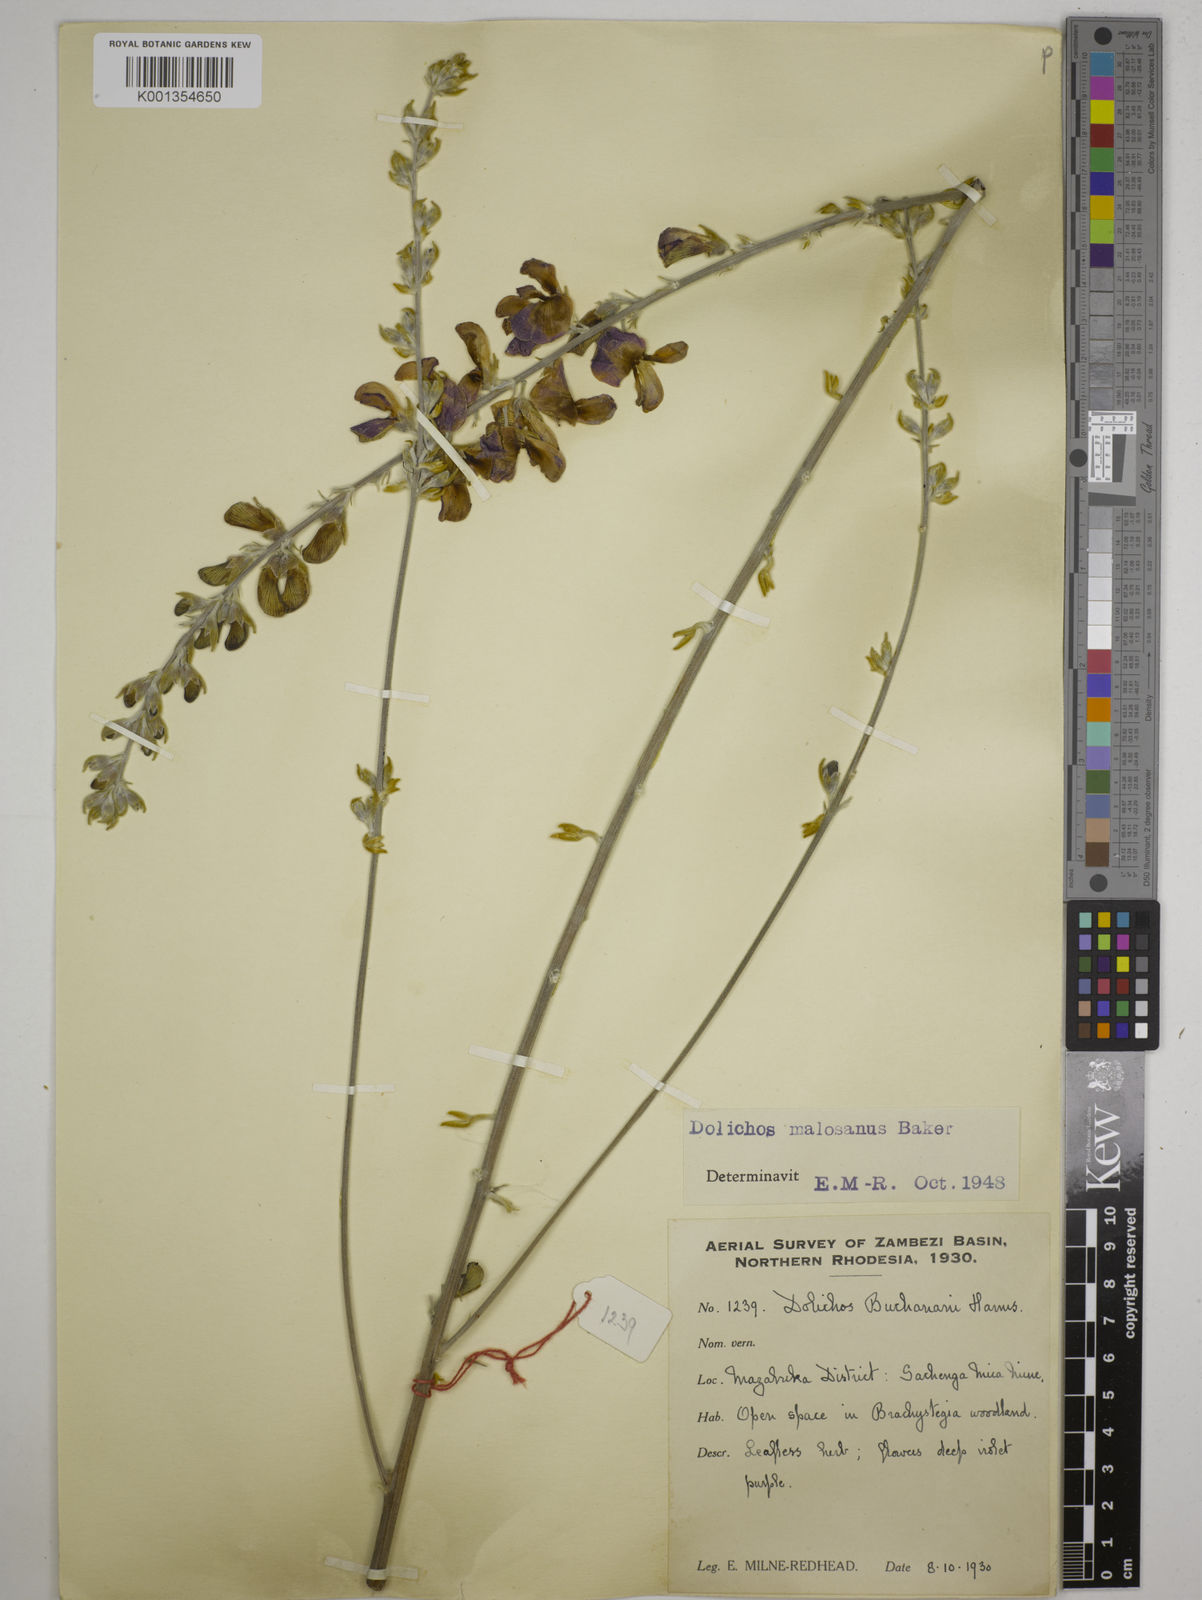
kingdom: Plantae
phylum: Tracheophyta
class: Magnoliopsida
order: Fabales
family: Fabaceae
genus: Dolichos
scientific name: Dolichos kilimandscharicus
